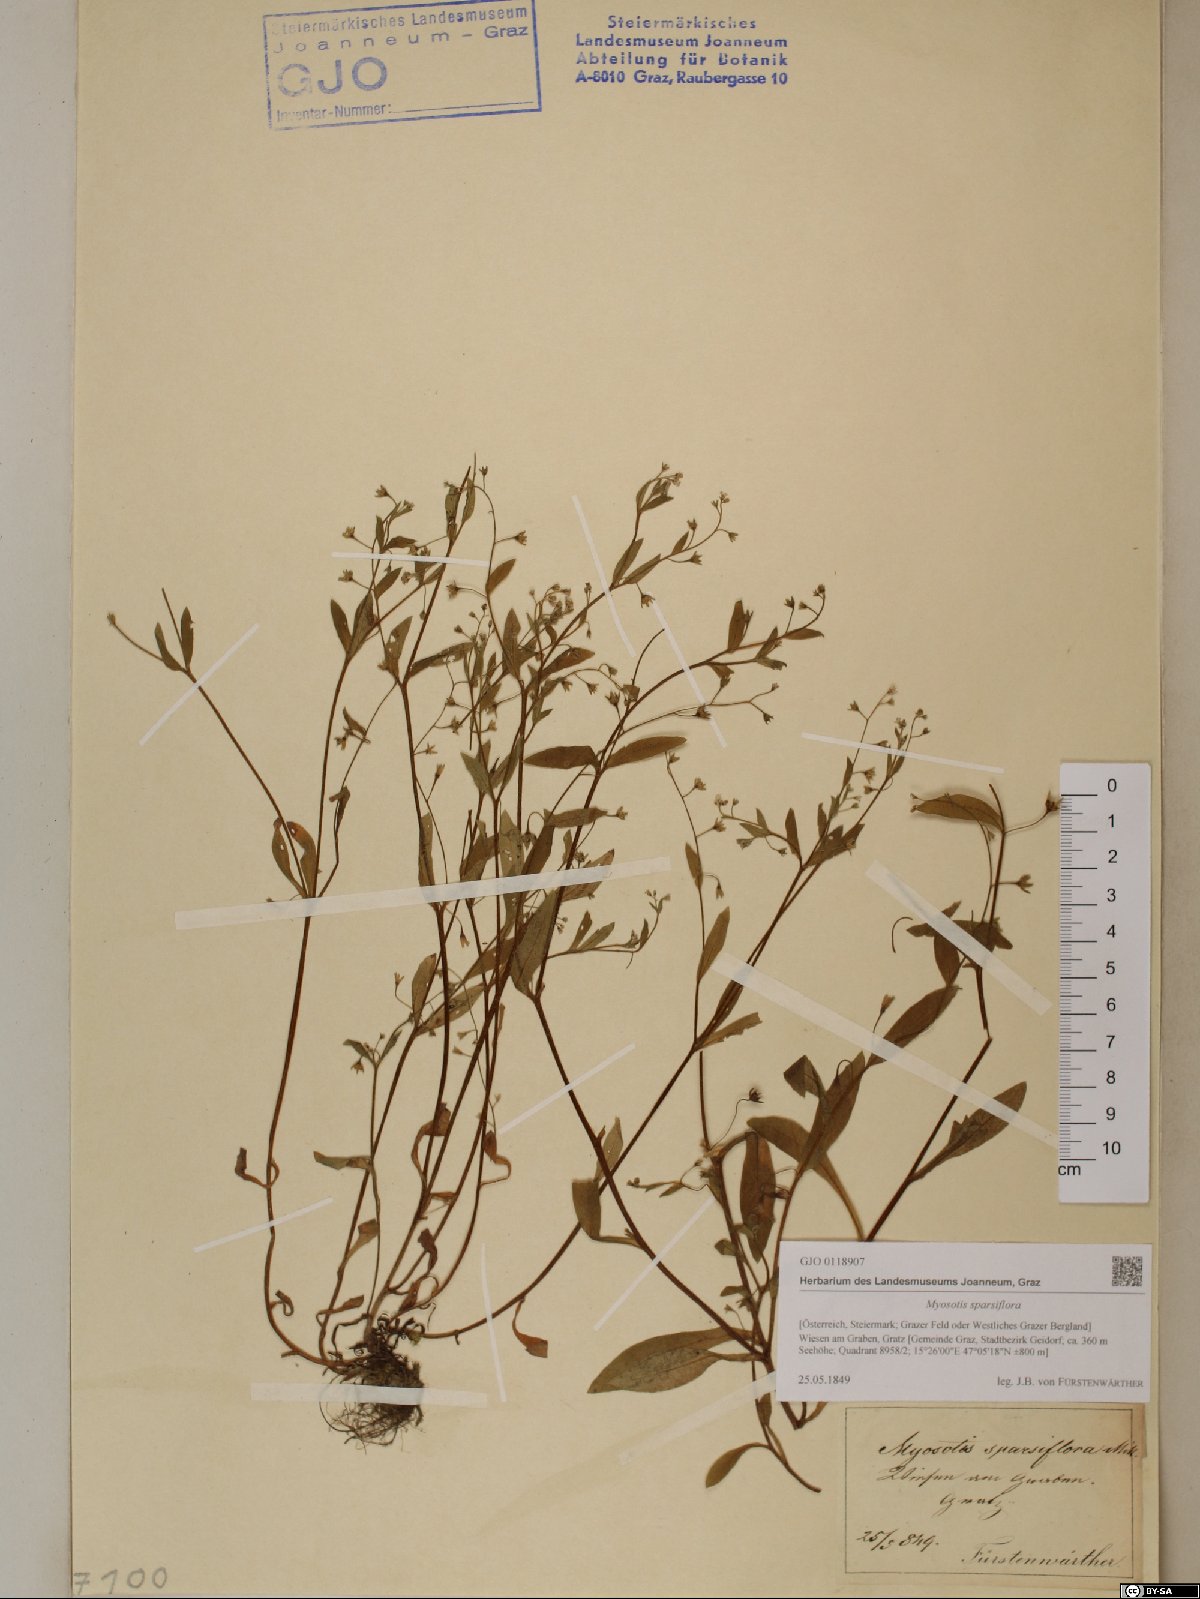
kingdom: Plantae
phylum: Tracheophyta
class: Magnoliopsida
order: Boraginales
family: Boraginaceae
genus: Myosotis
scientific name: Myosotis sparsiflora
